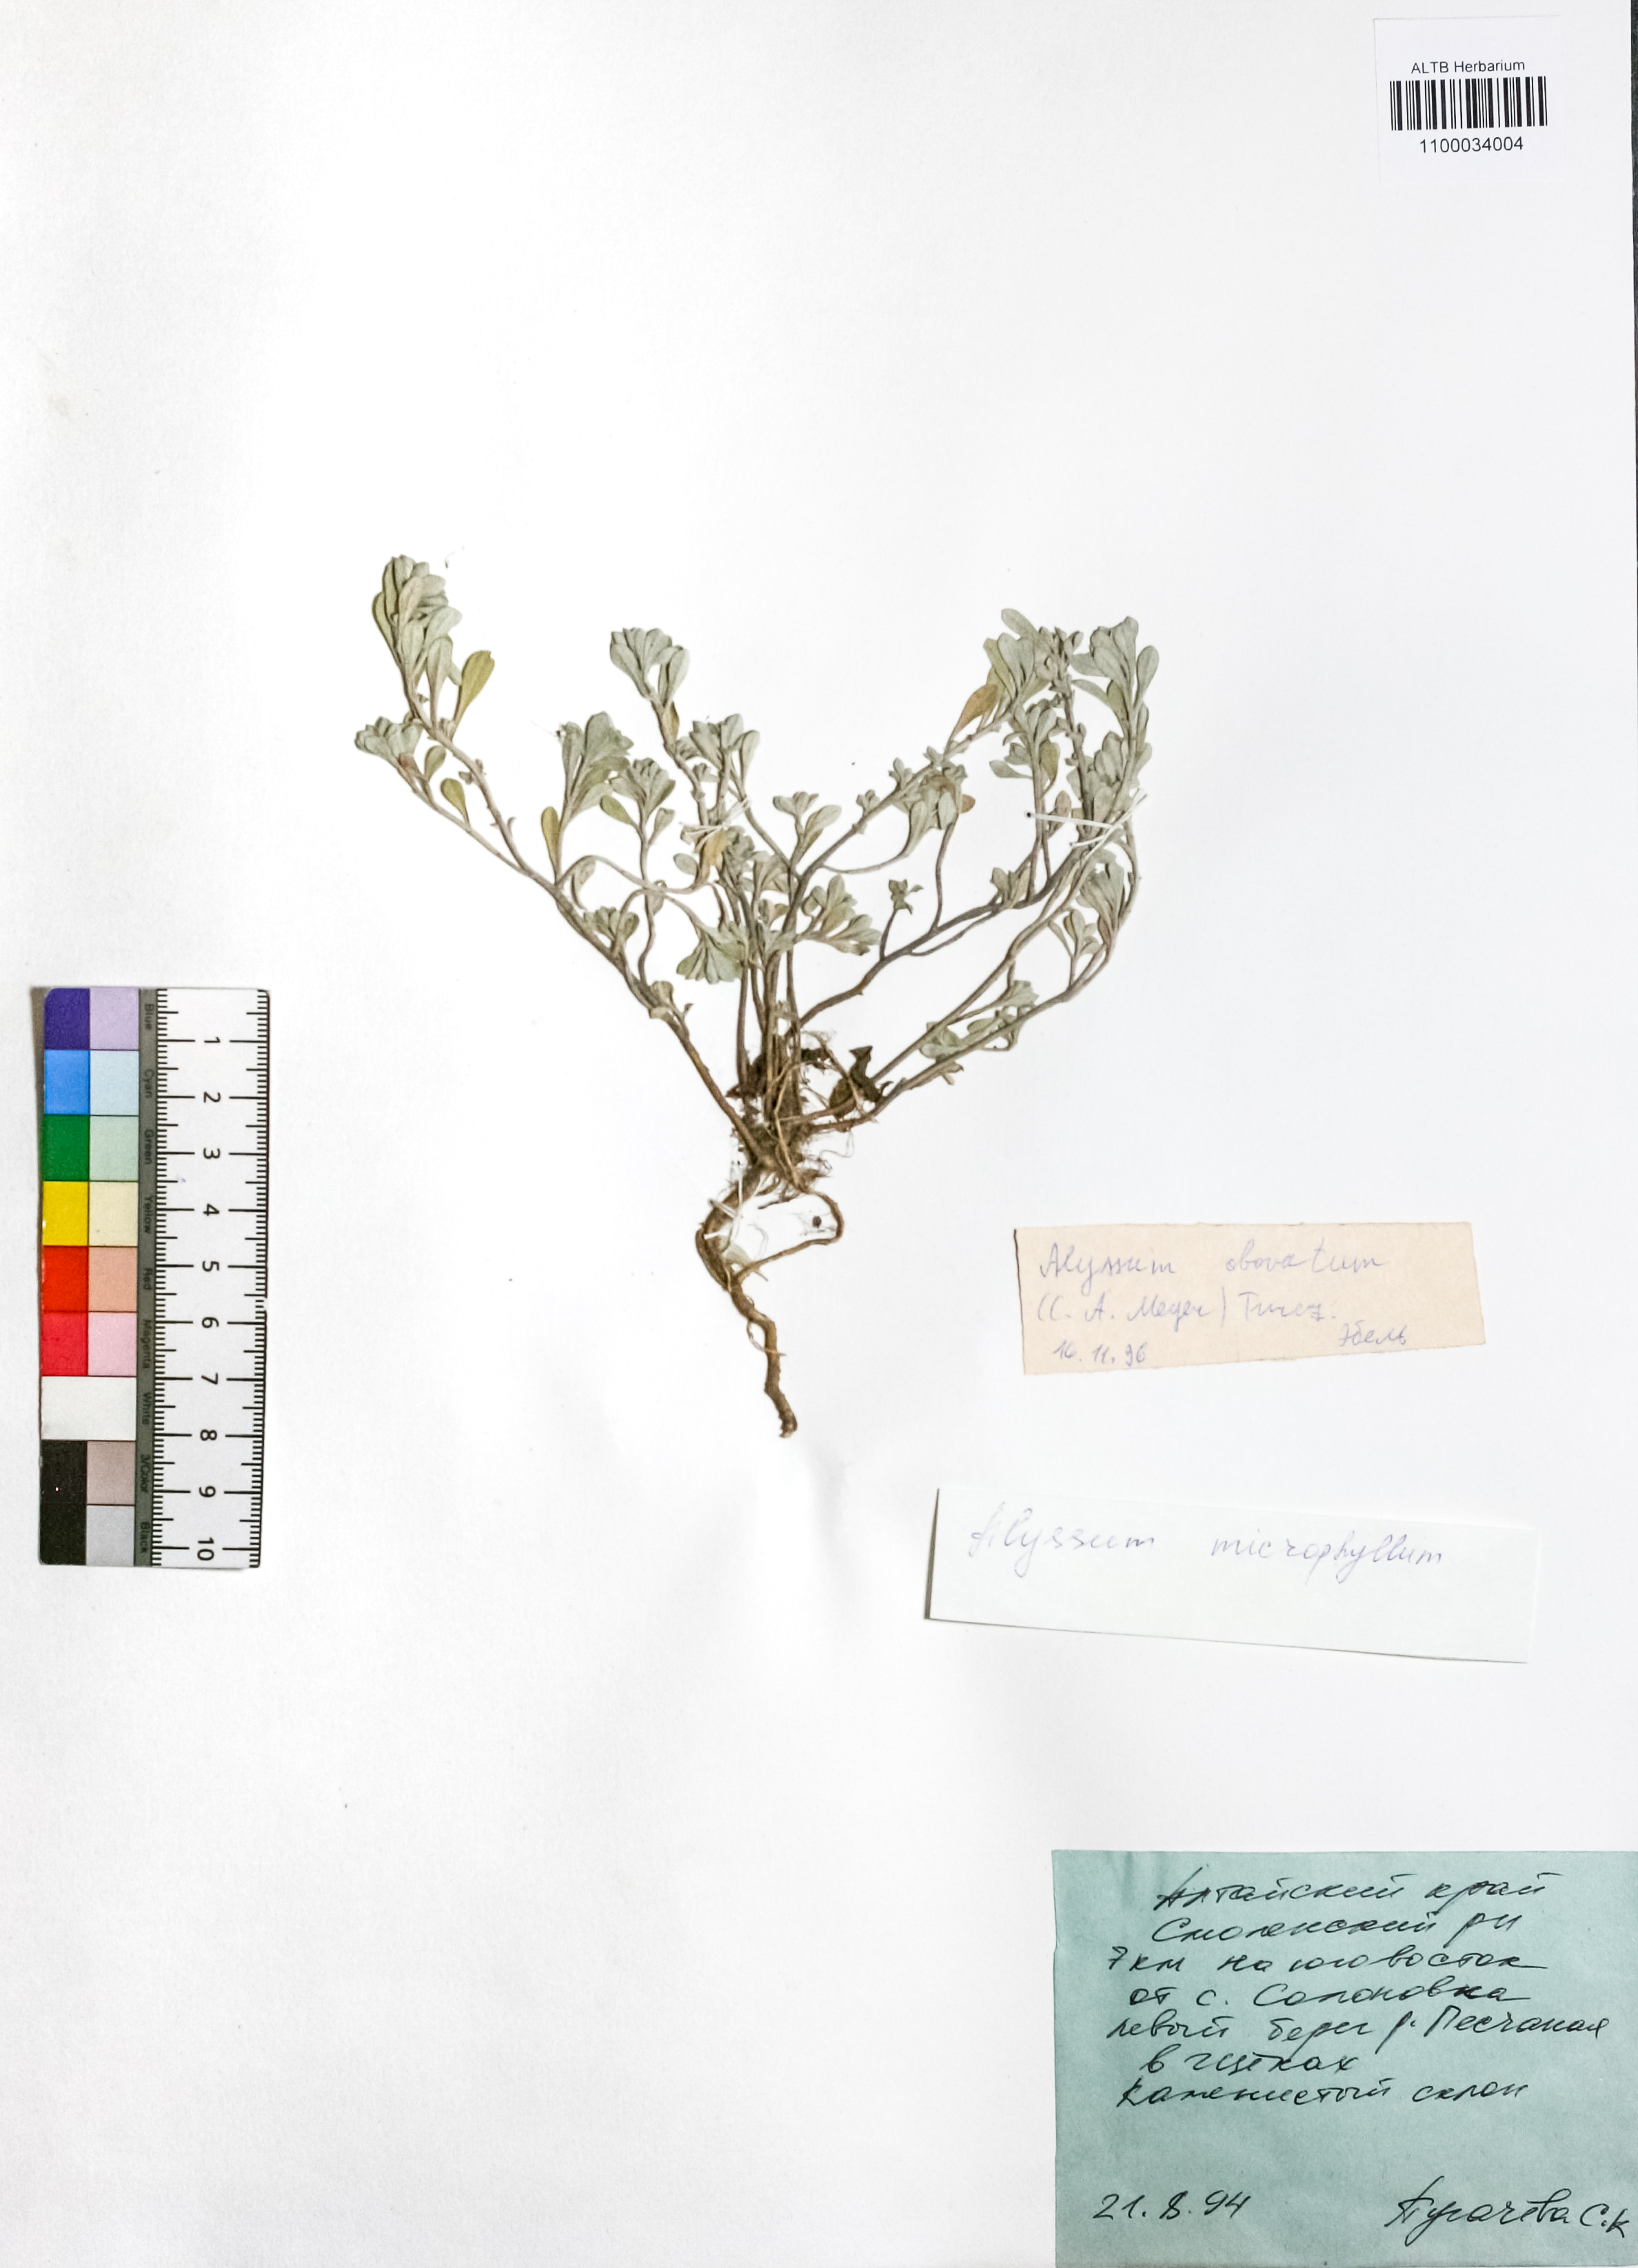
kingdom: Plantae
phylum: Tracheophyta
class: Magnoliopsida
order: Brassicales
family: Brassicaceae
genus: Odontarrhena
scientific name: Odontarrhena obovata
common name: American alyssum
